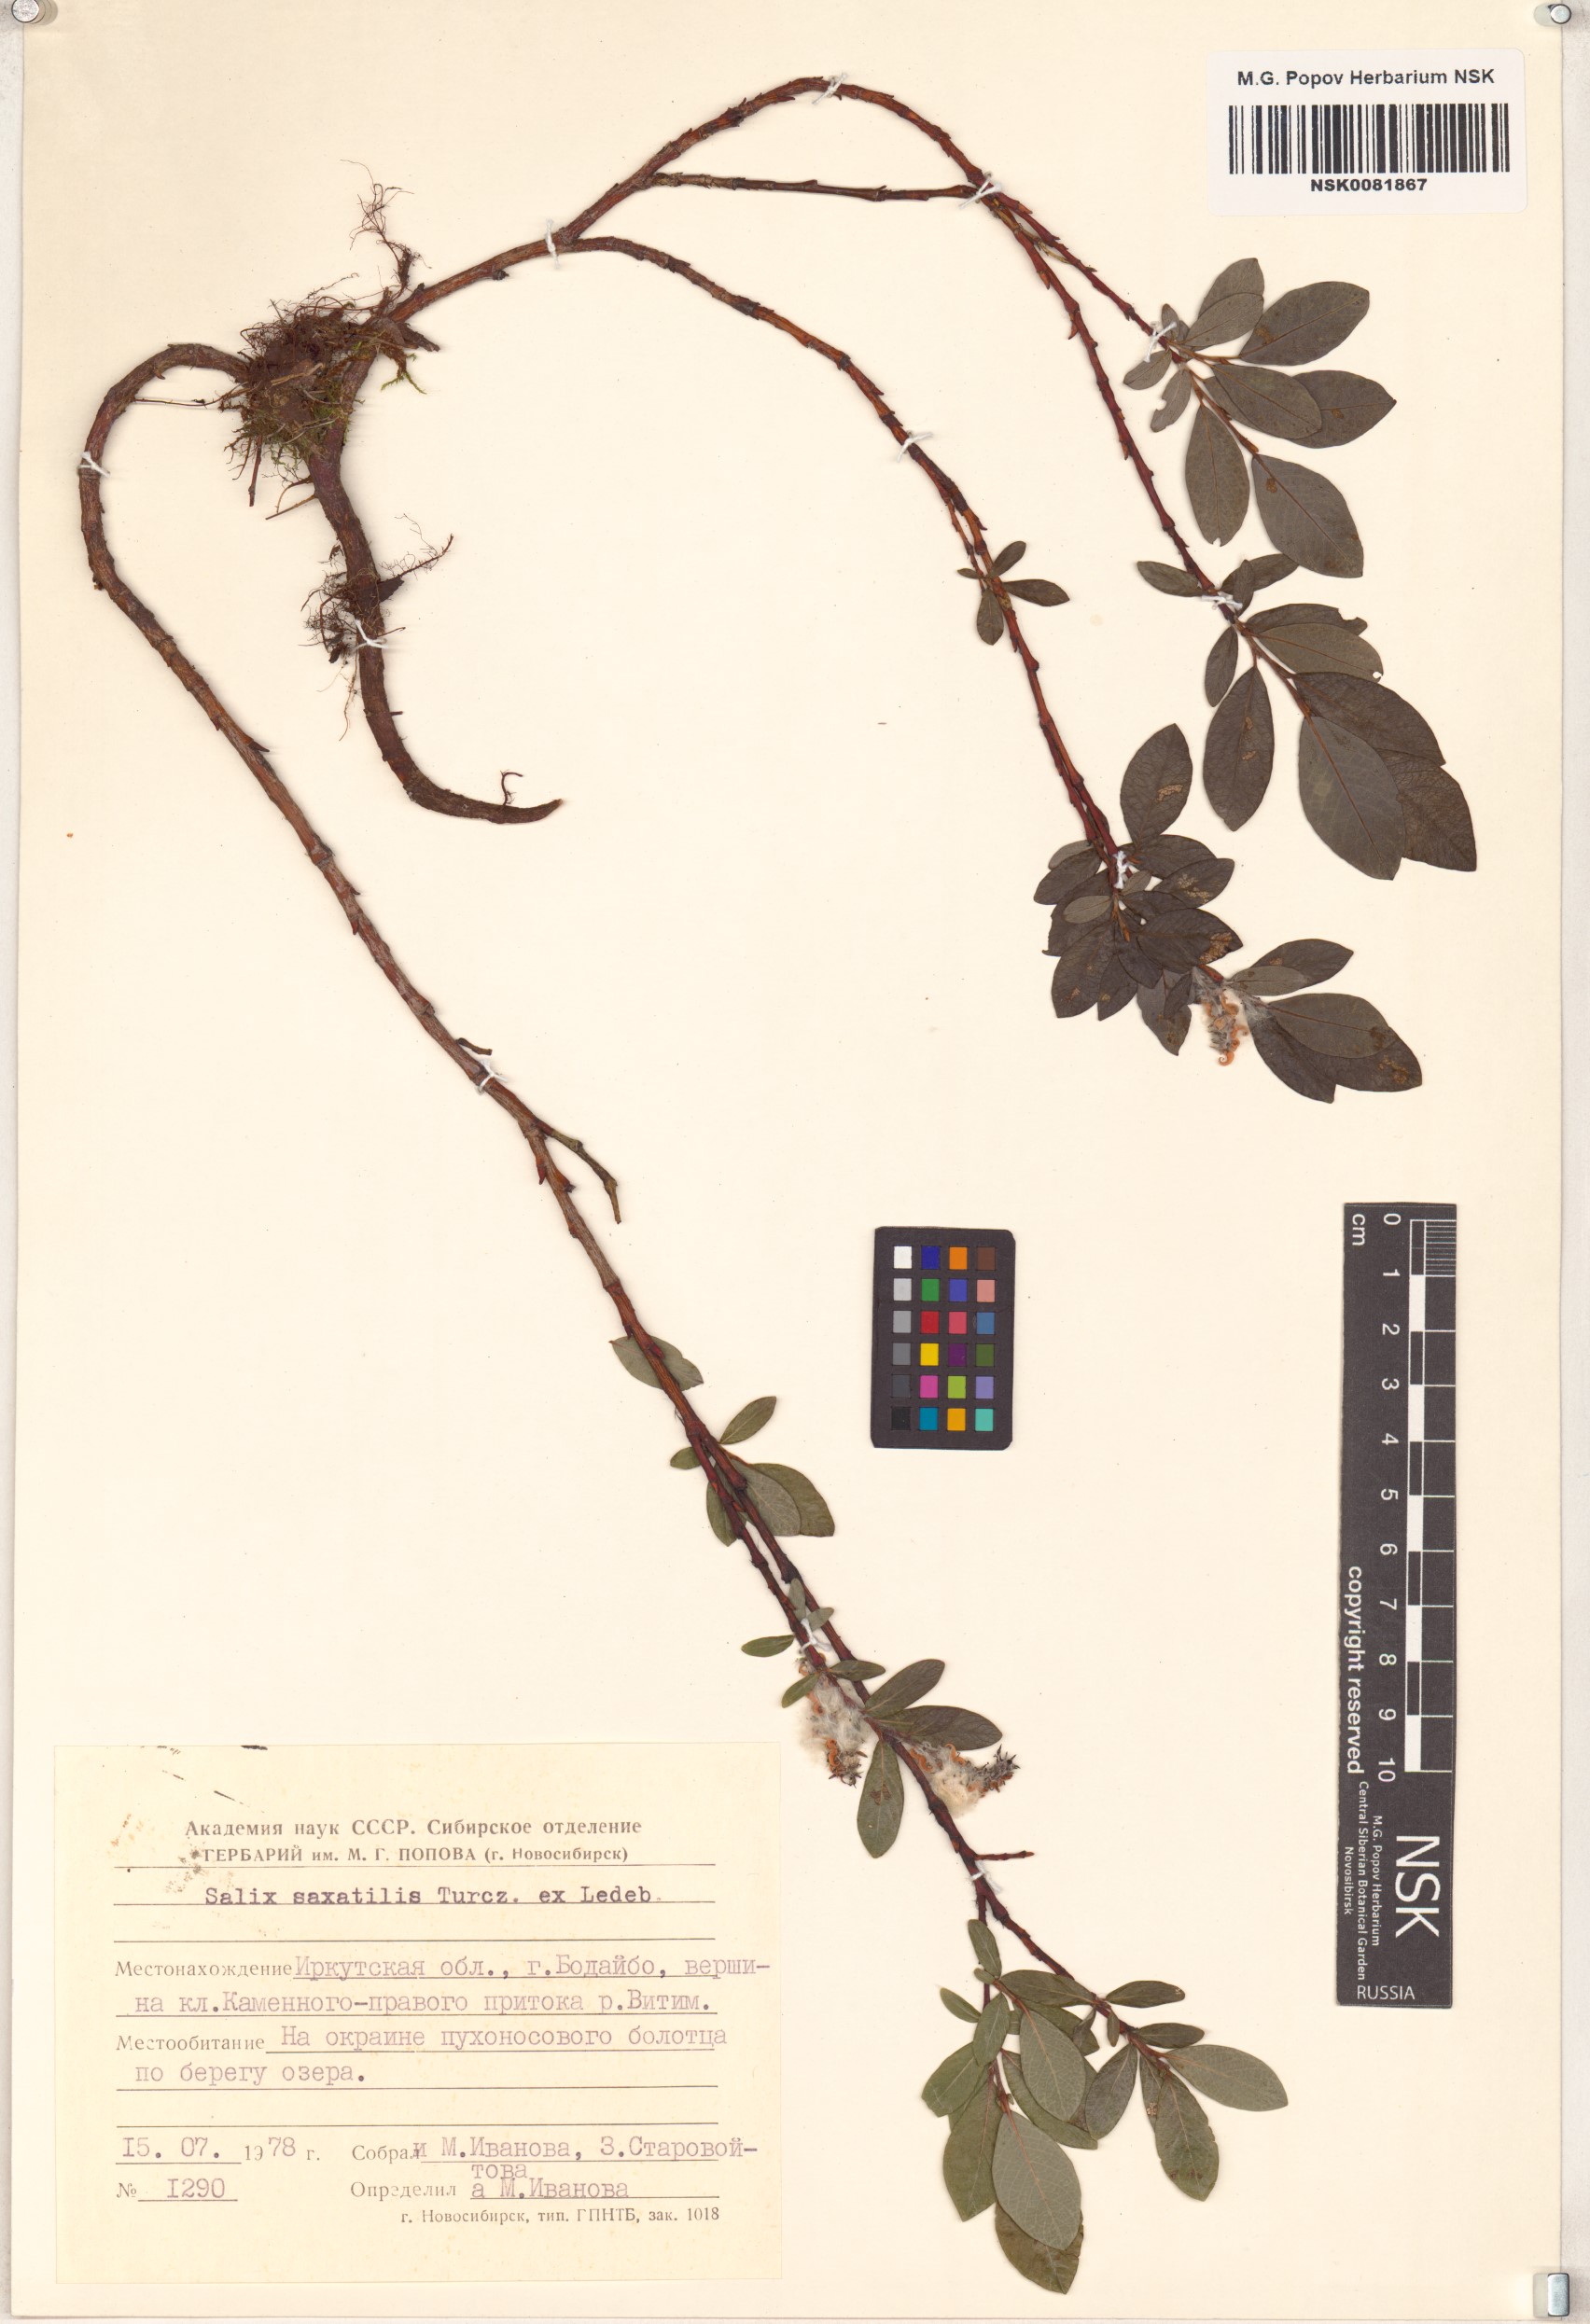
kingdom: Plantae
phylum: Tracheophyta
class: Magnoliopsida
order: Malpighiales
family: Salicaceae
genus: Salix
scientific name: Salix saxatilis
